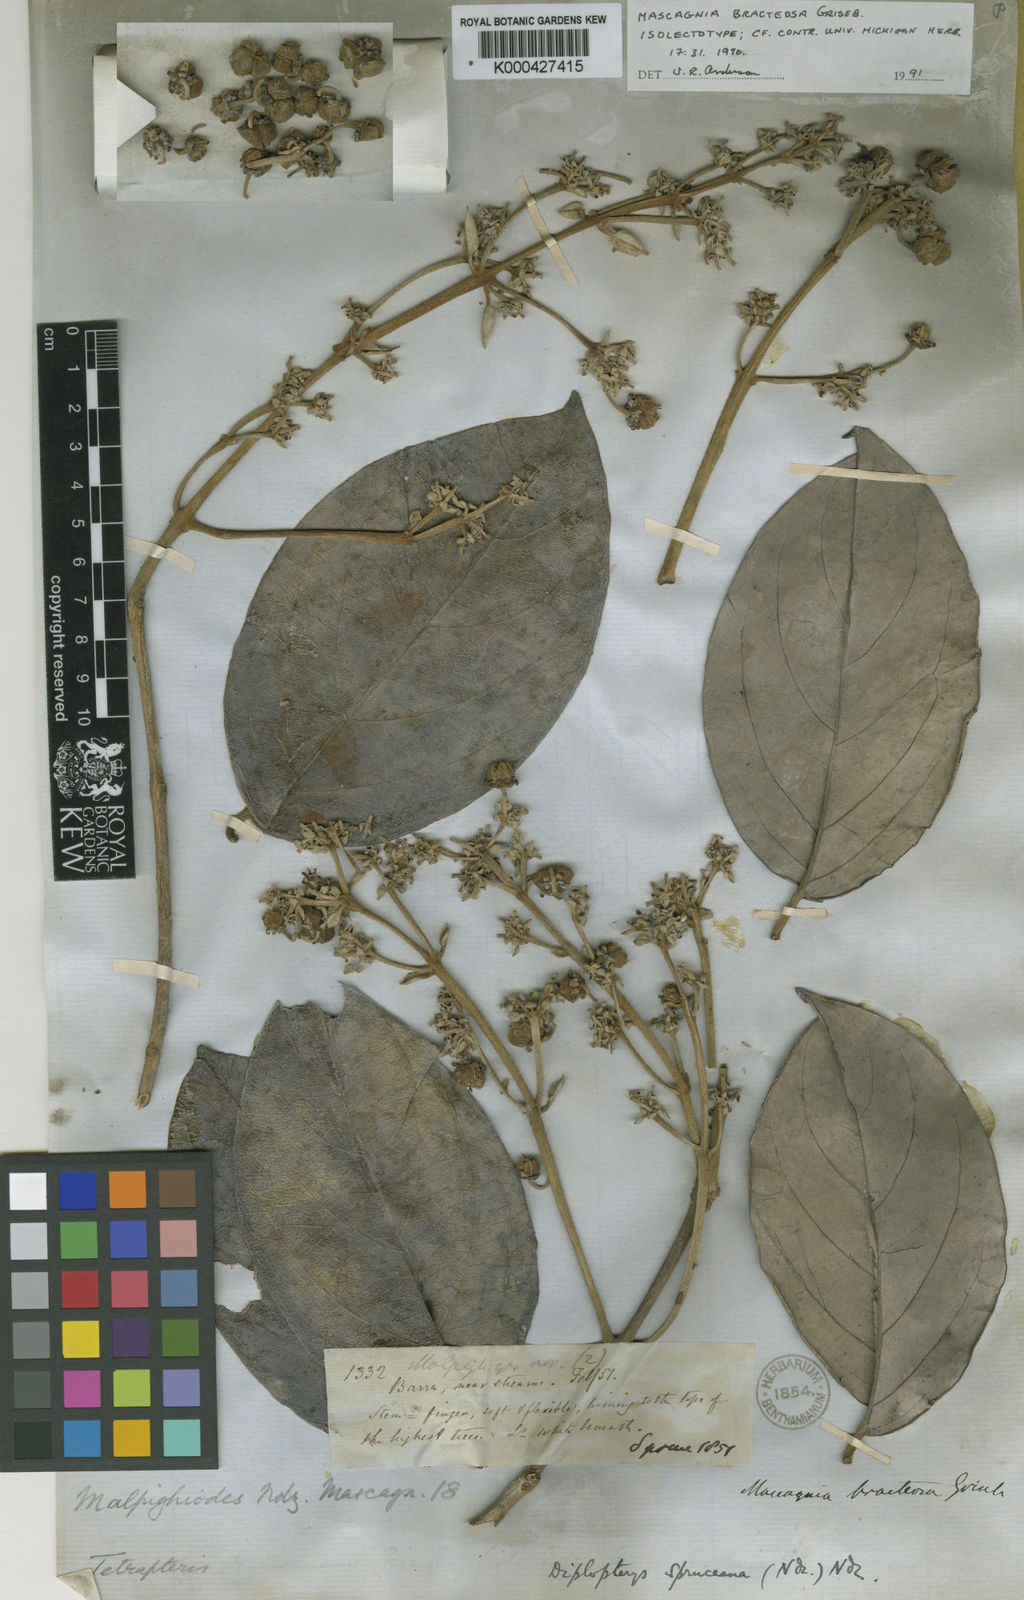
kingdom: Plantae
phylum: Tracheophyta
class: Magnoliopsida
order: Malpighiales
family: Malpighiaceae
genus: Malpighiodes
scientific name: Malpighiodes bracteosa
